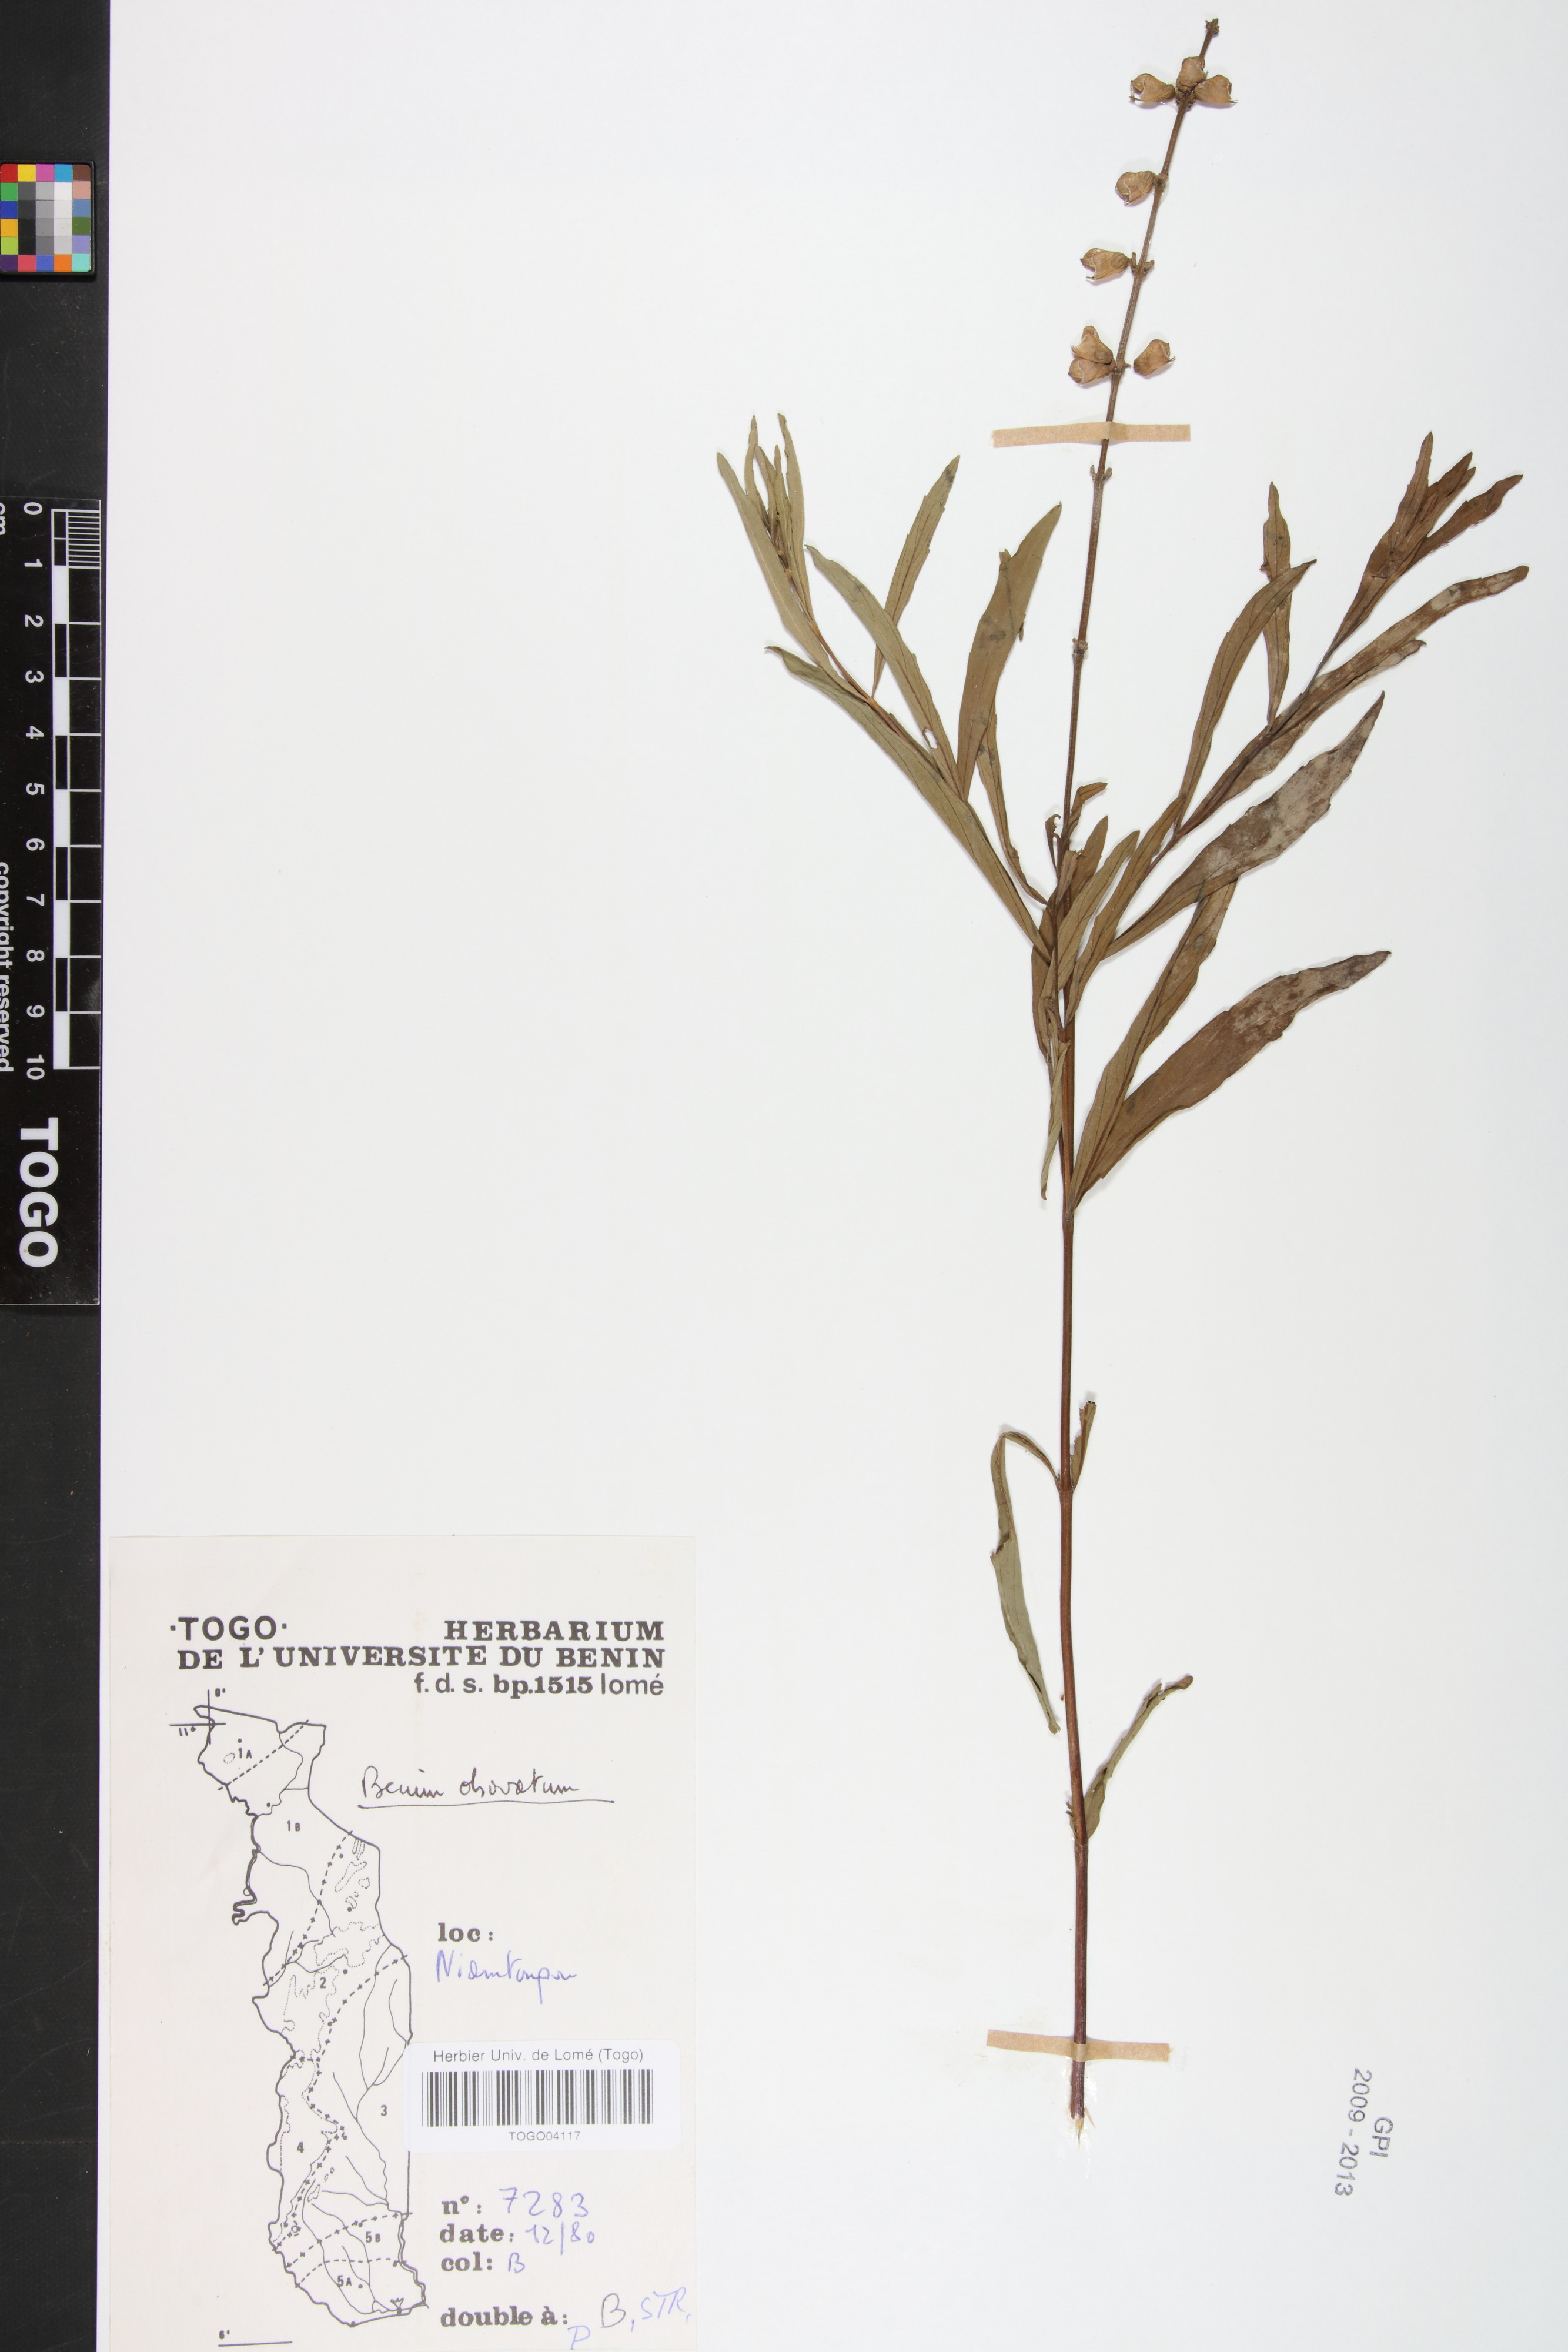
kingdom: Plantae
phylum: Tracheophyta
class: Magnoliopsida
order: Lamiales
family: Lamiaceae
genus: Ocimum
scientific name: Ocimum obovatum
